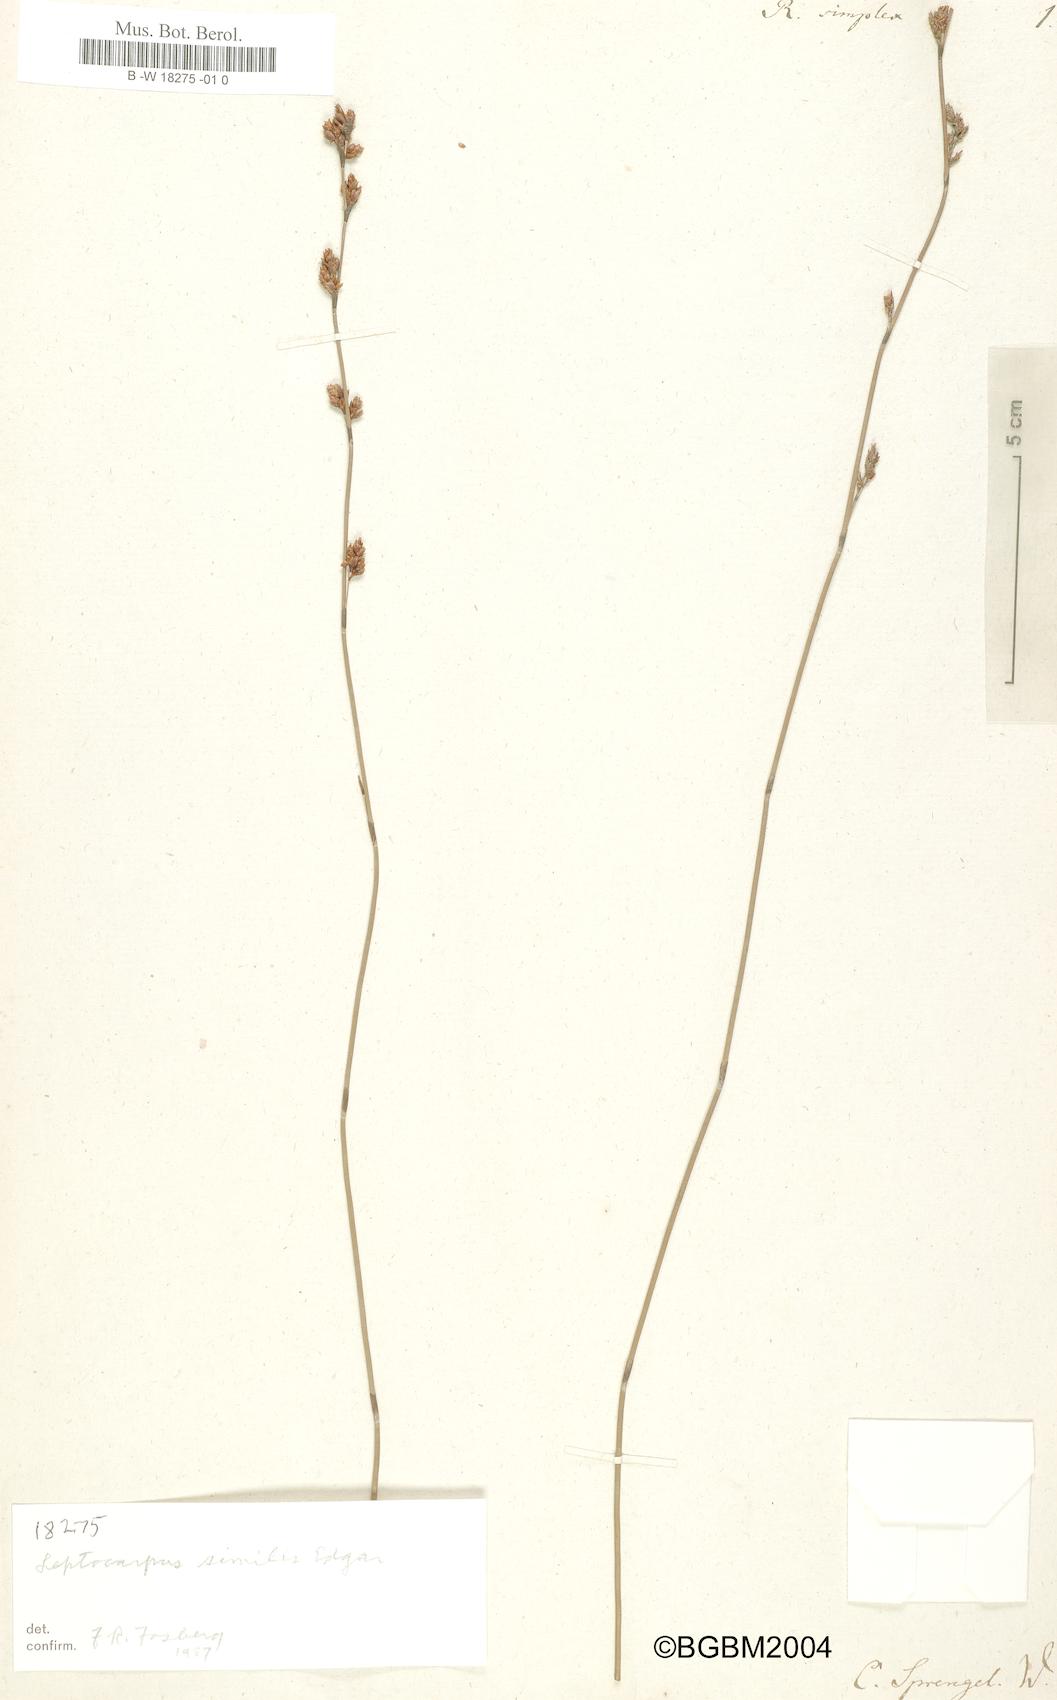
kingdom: Plantae
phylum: Tracheophyta
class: Liliopsida
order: Poales
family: Restionaceae
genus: Thamnochortus
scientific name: Thamnochortus erectus
